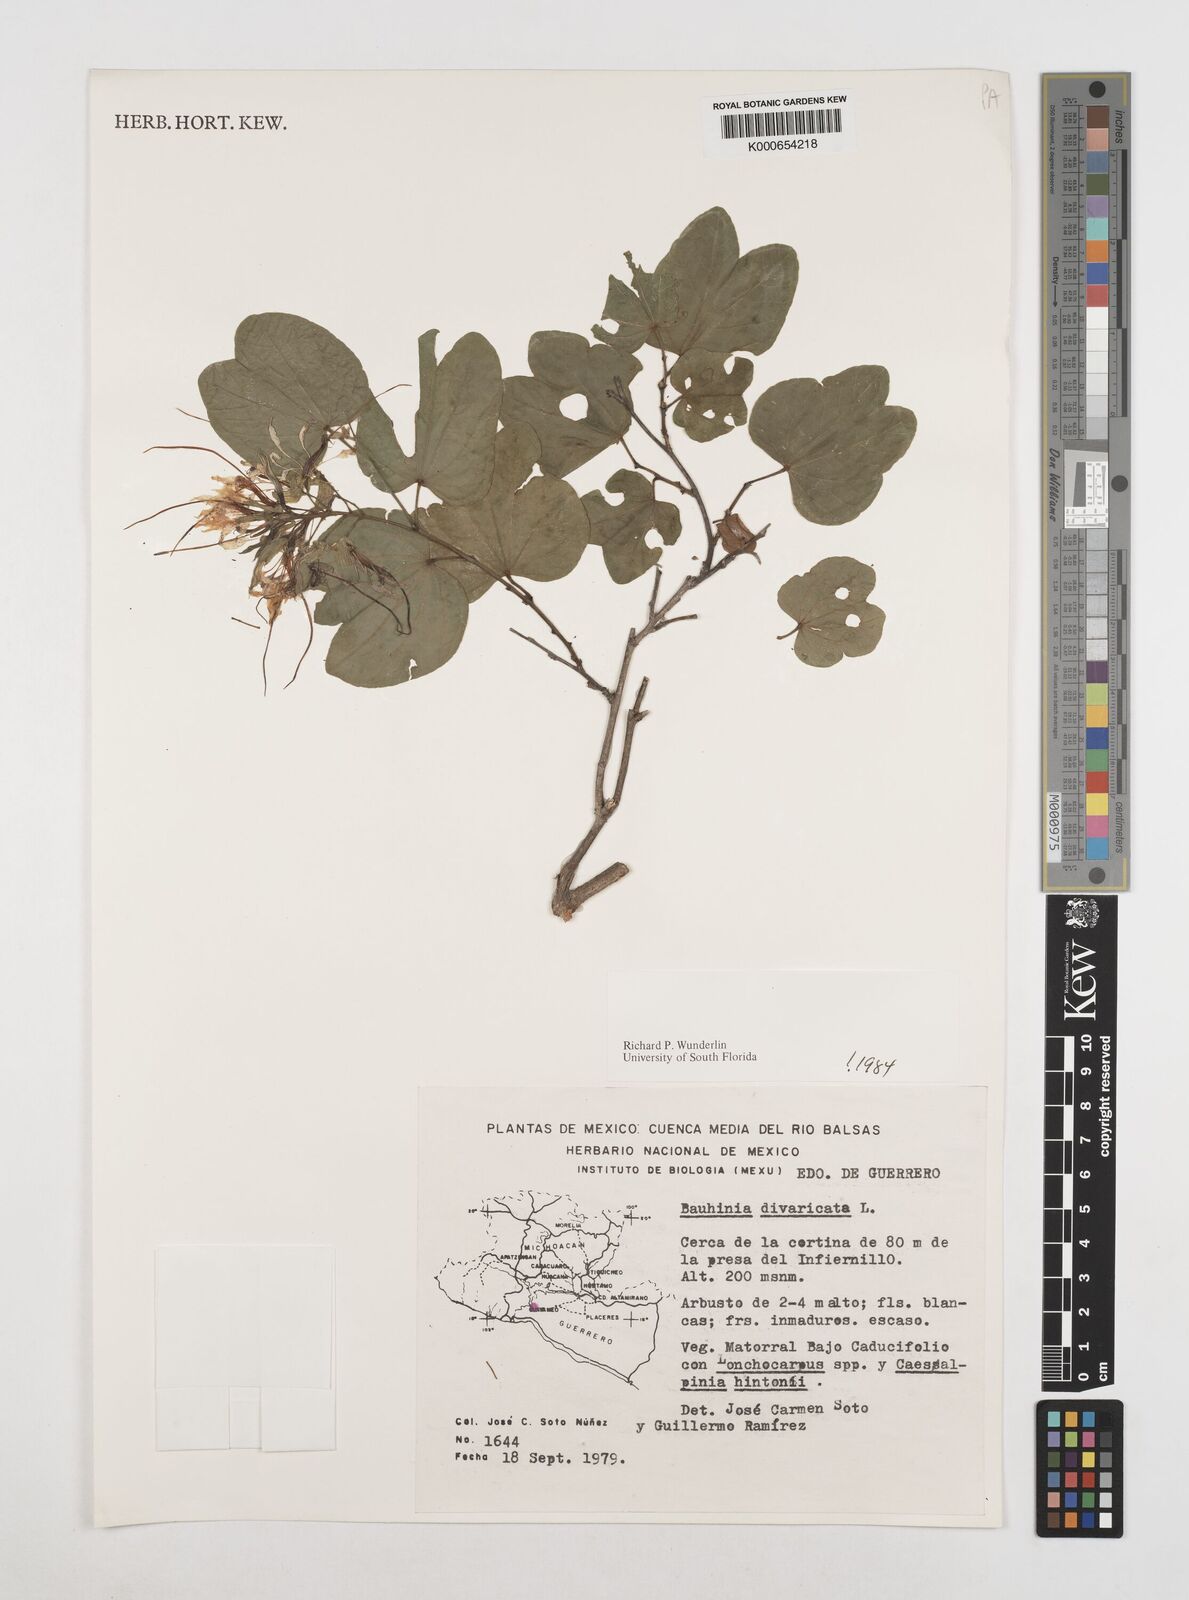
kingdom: Plantae
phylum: Tracheophyta
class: Magnoliopsida
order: Fabales
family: Fabaceae
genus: Bauhinia
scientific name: Bauhinia divaricata
